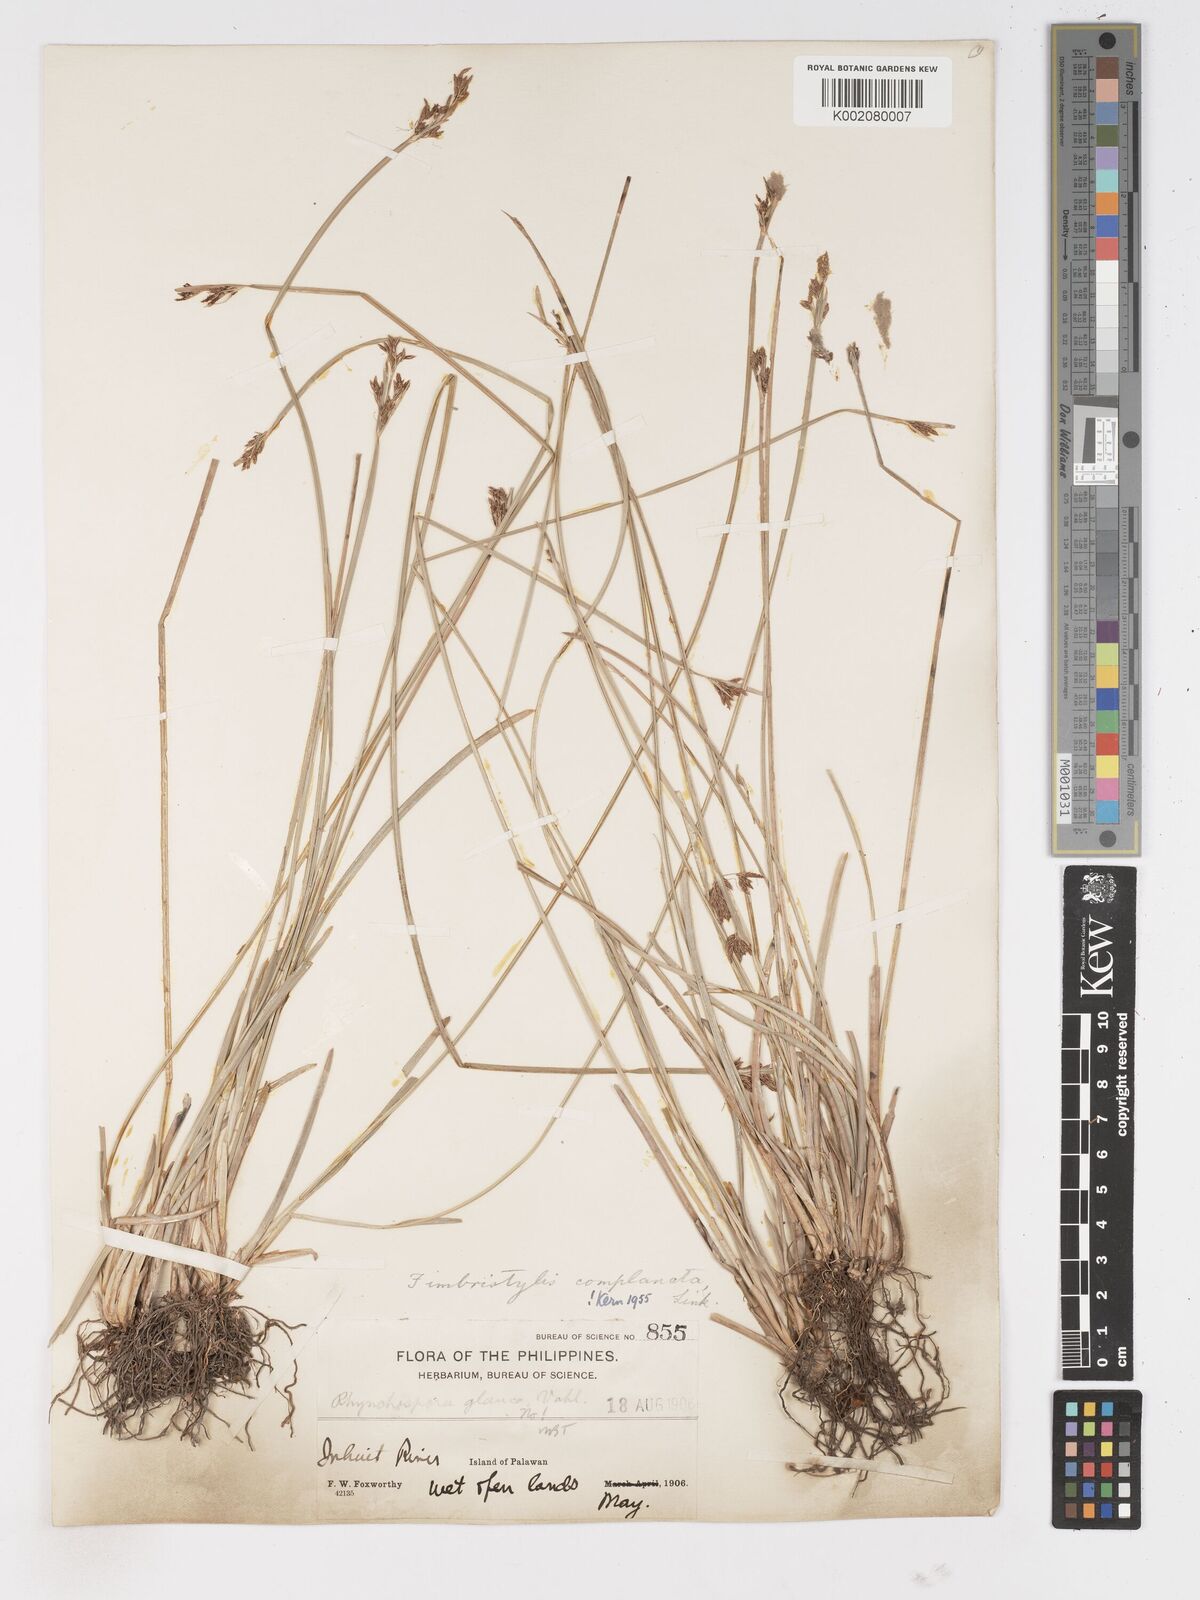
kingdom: Plantae
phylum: Tracheophyta
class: Liliopsida
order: Poales
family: Cyperaceae
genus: Fimbristylis
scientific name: Fimbristylis complanata
